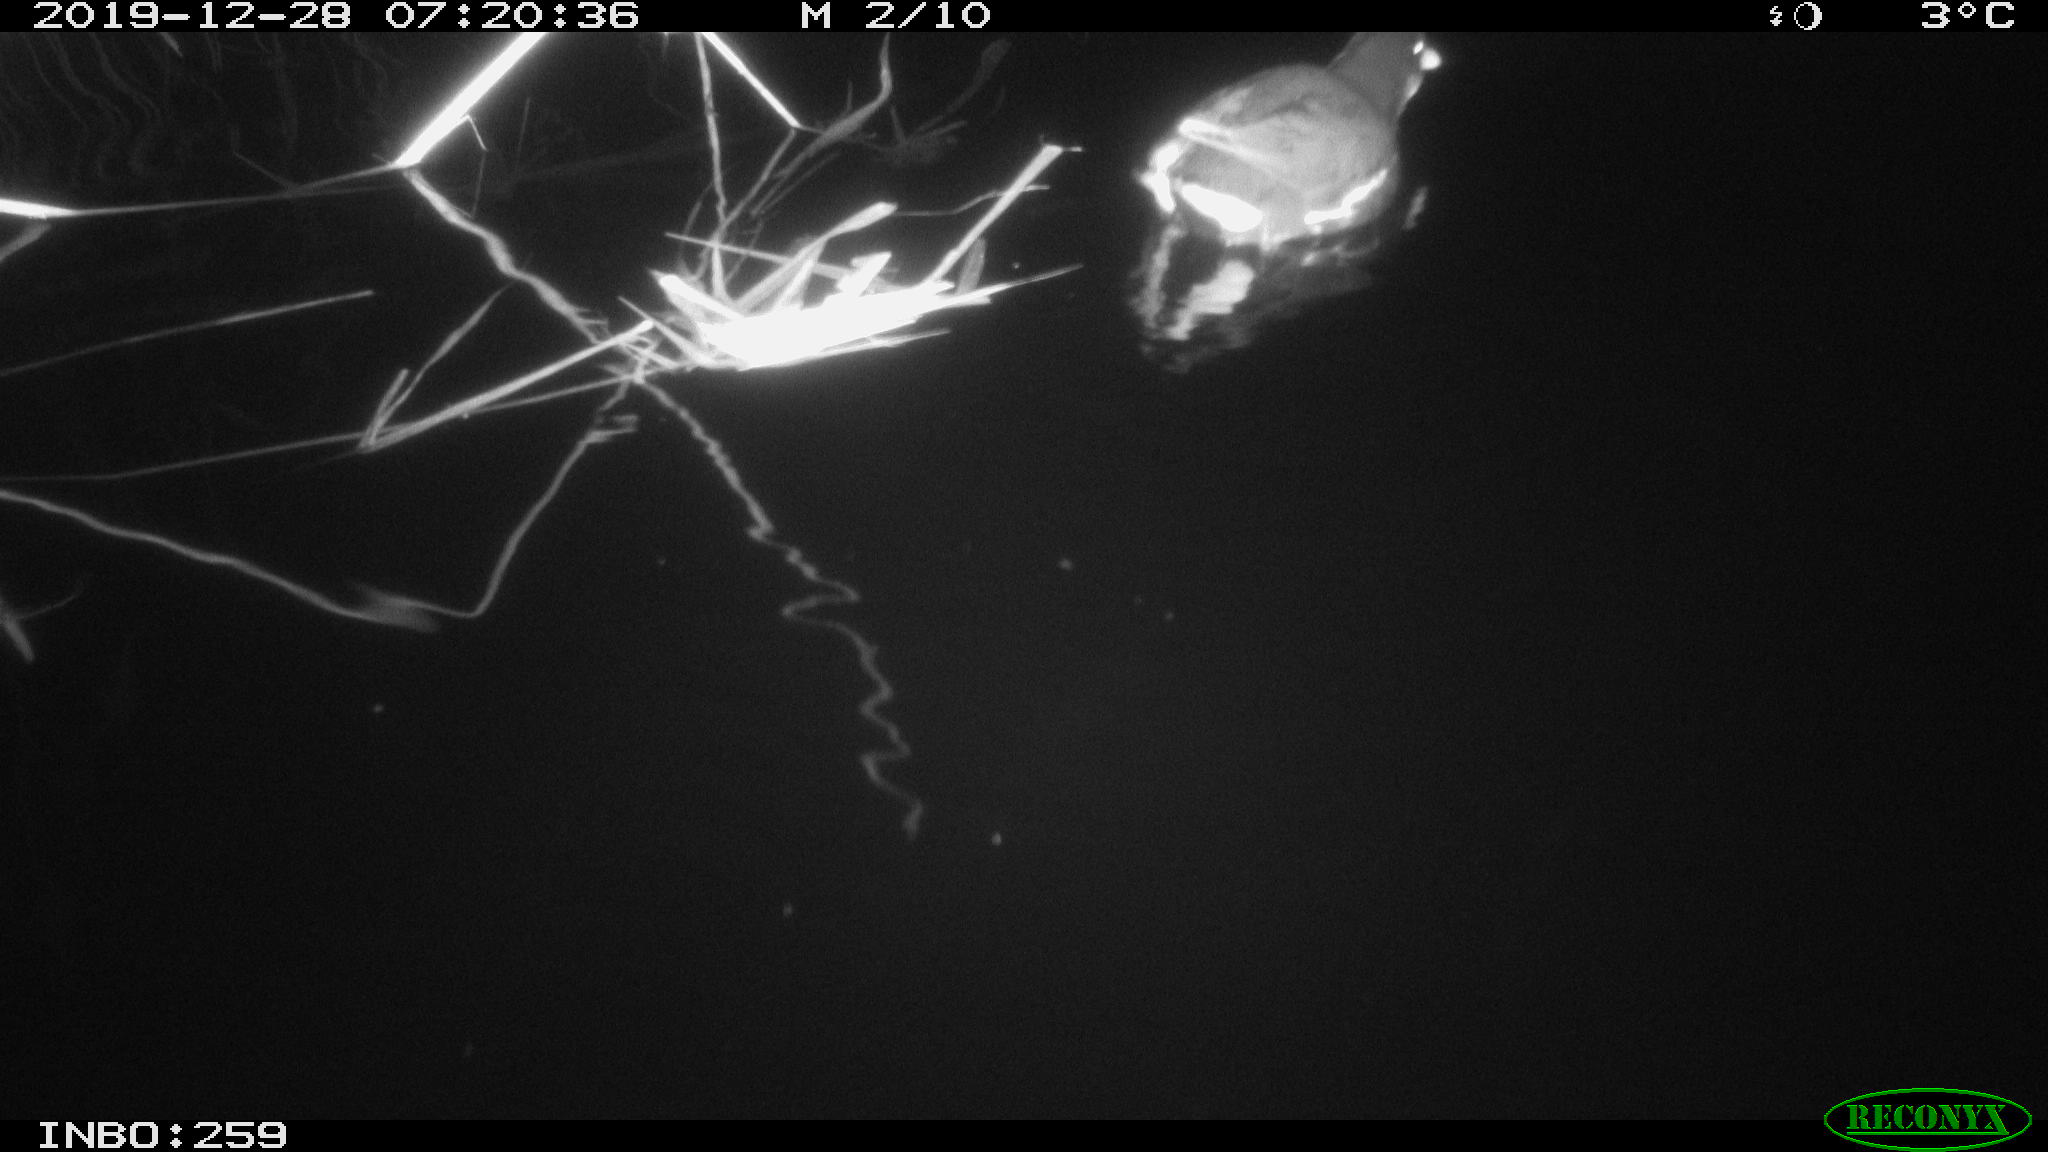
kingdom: Animalia
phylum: Chordata
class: Aves
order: Gruiformes
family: Rallidae
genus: Gallinula
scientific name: Gallinula chloropus
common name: Common moorhen
